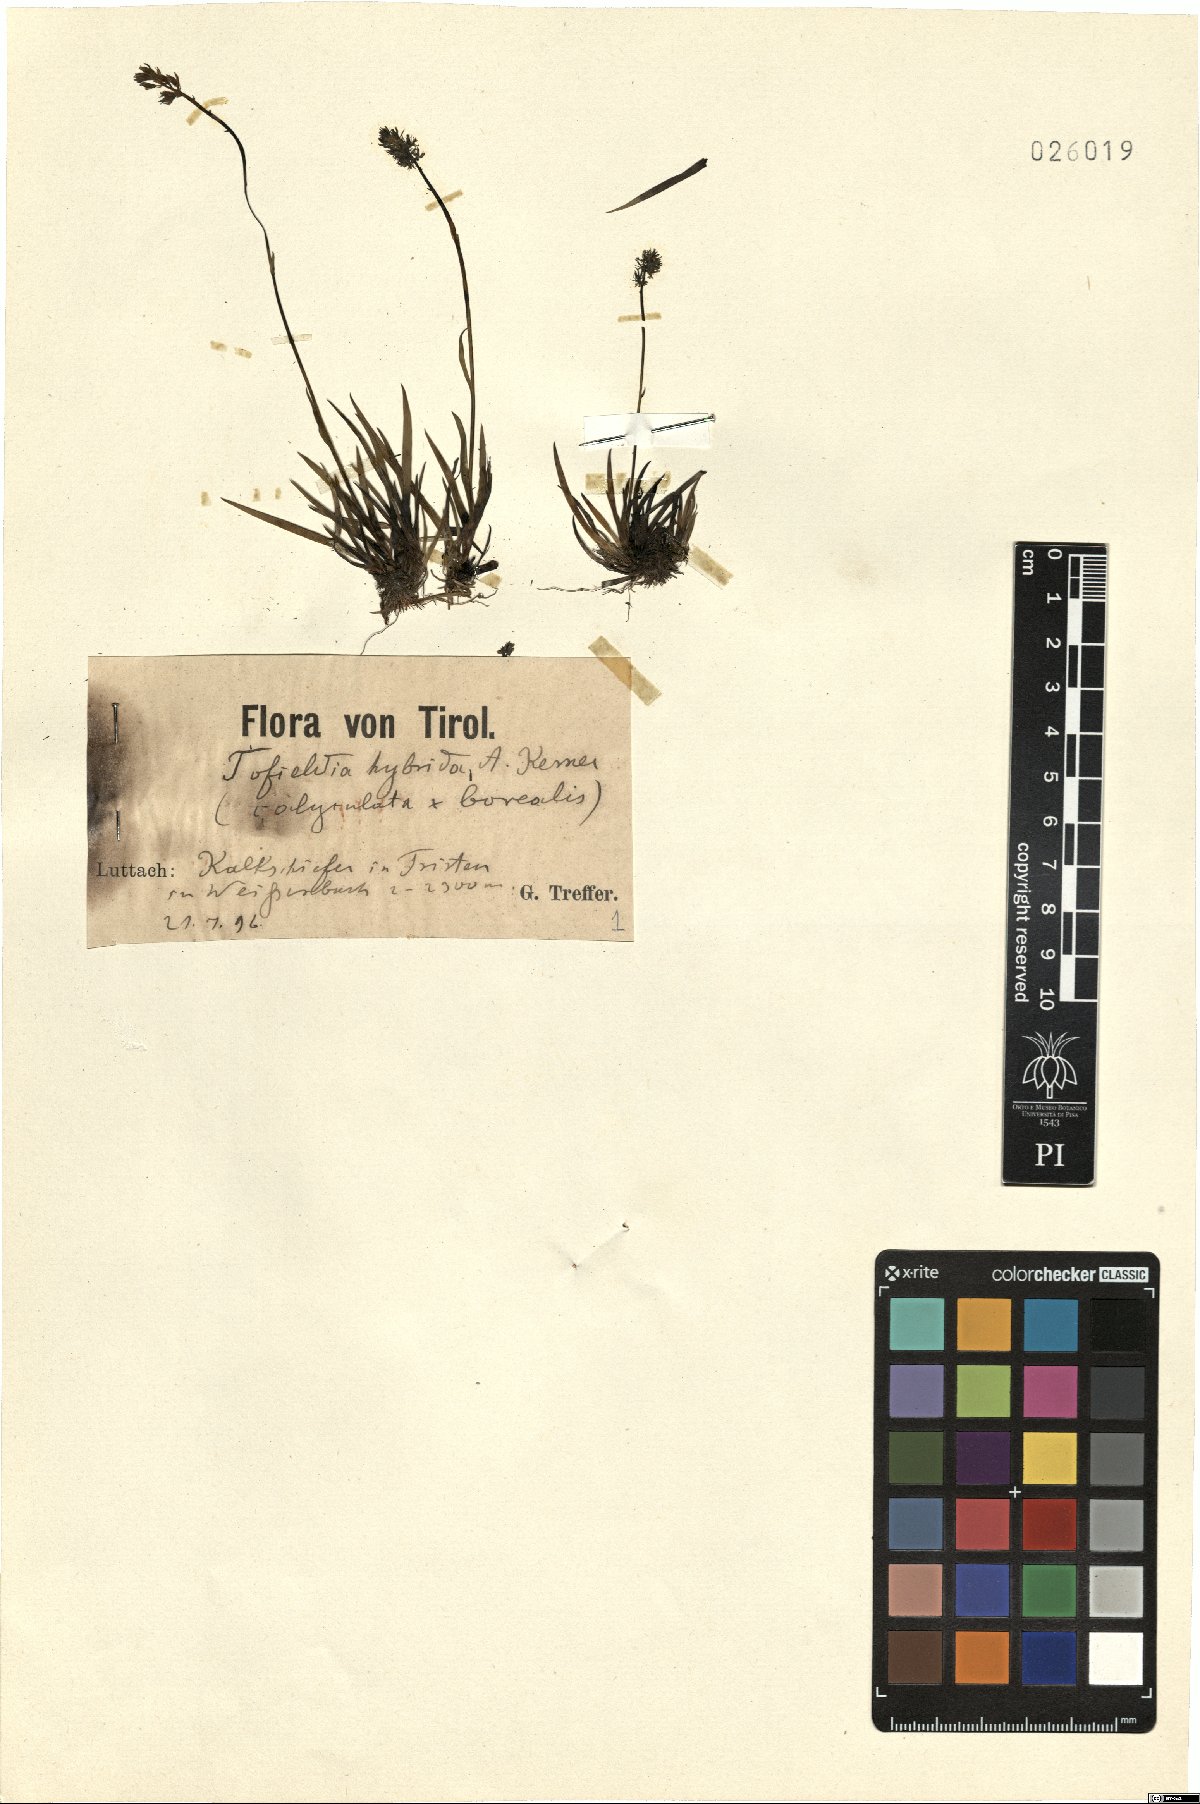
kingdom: Plantae
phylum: Tracheophyta
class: Liliopsida
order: Alismatales
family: Tofieldiaceae
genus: Tofieldia
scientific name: Tofieldia hybrida
